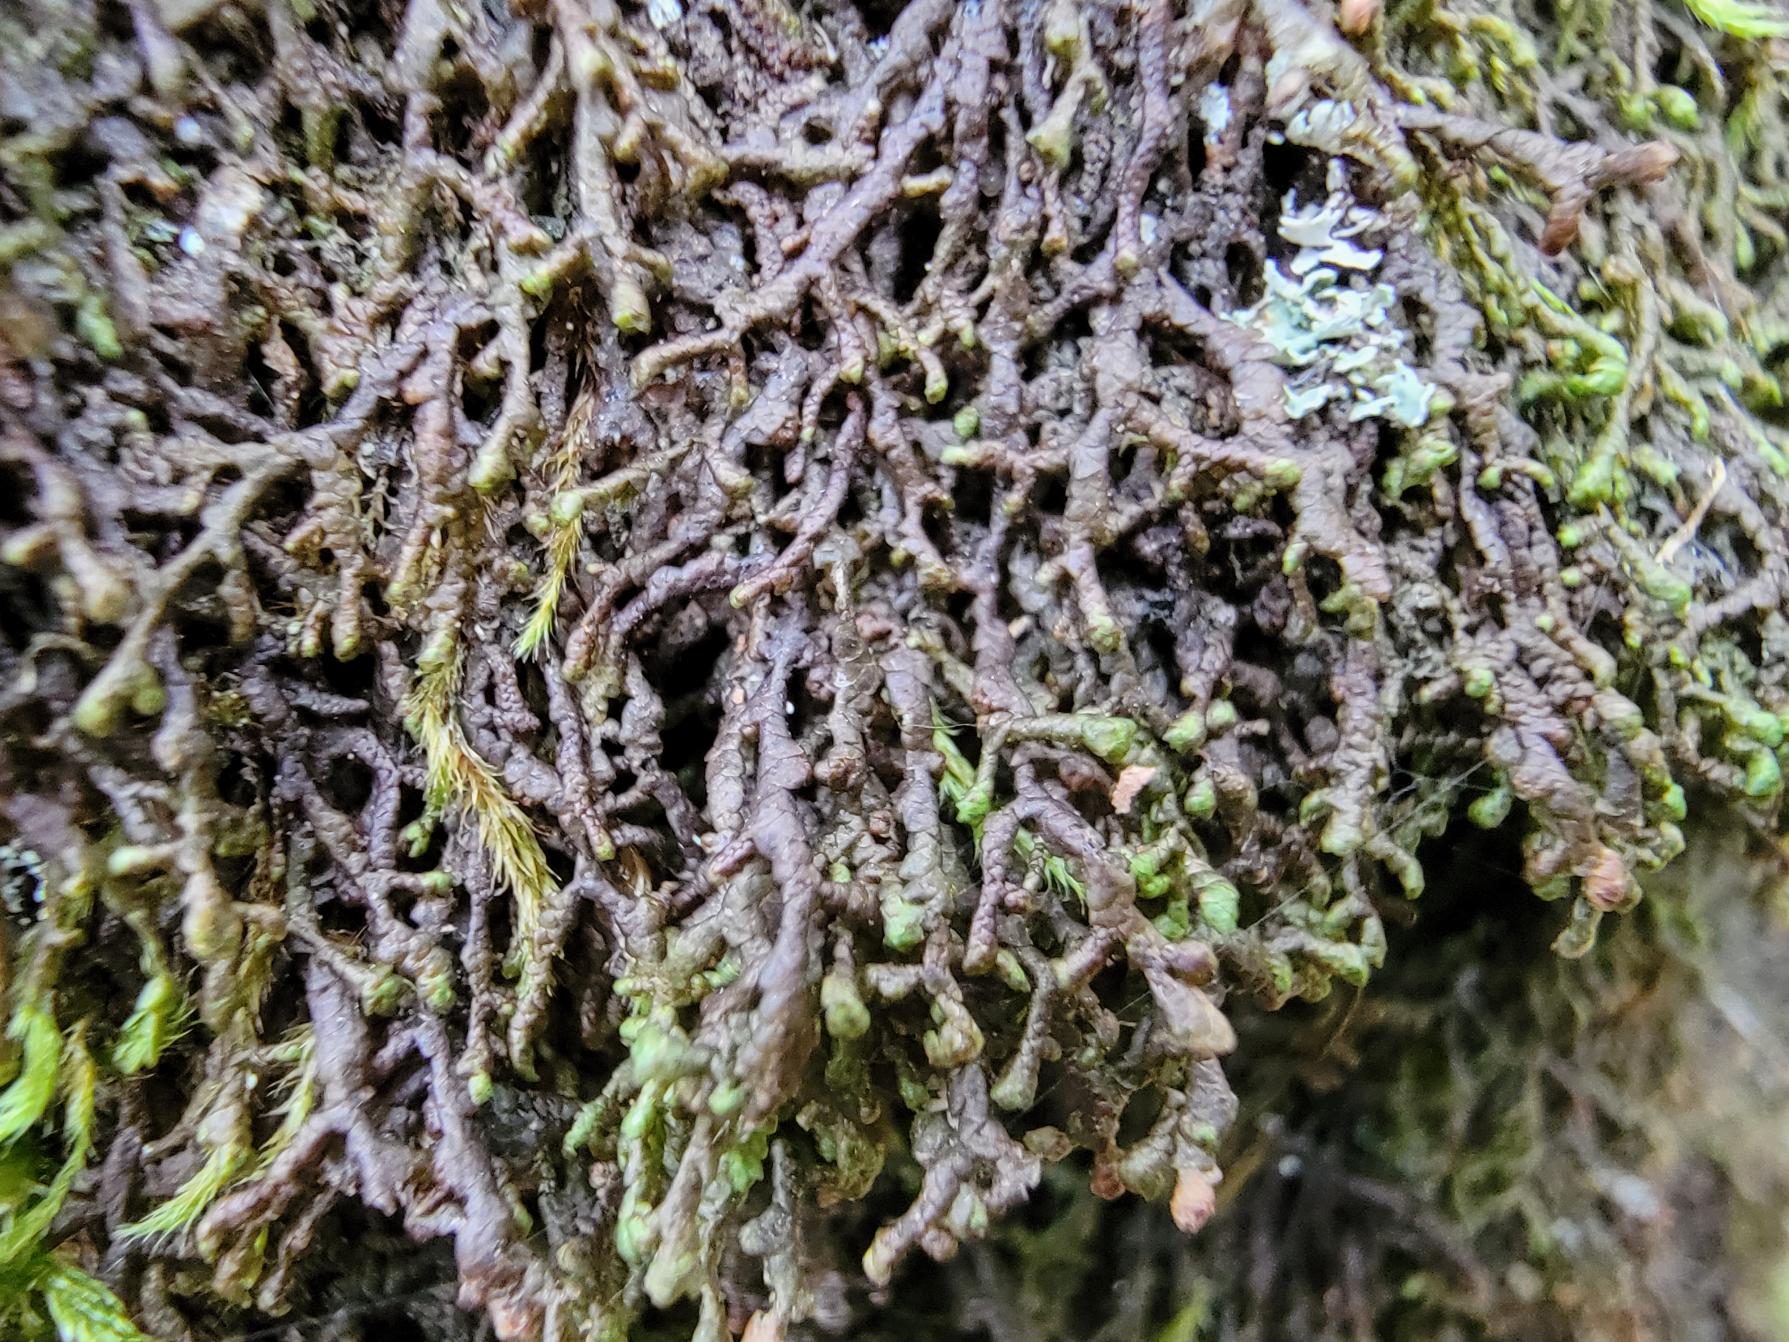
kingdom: Plantae
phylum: Marchantiophyta
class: Jungermanniopsida
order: Porellales
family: Frullaniaceae
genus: Frullania
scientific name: Frullania tamarisci
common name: Glinsende bronzemos
